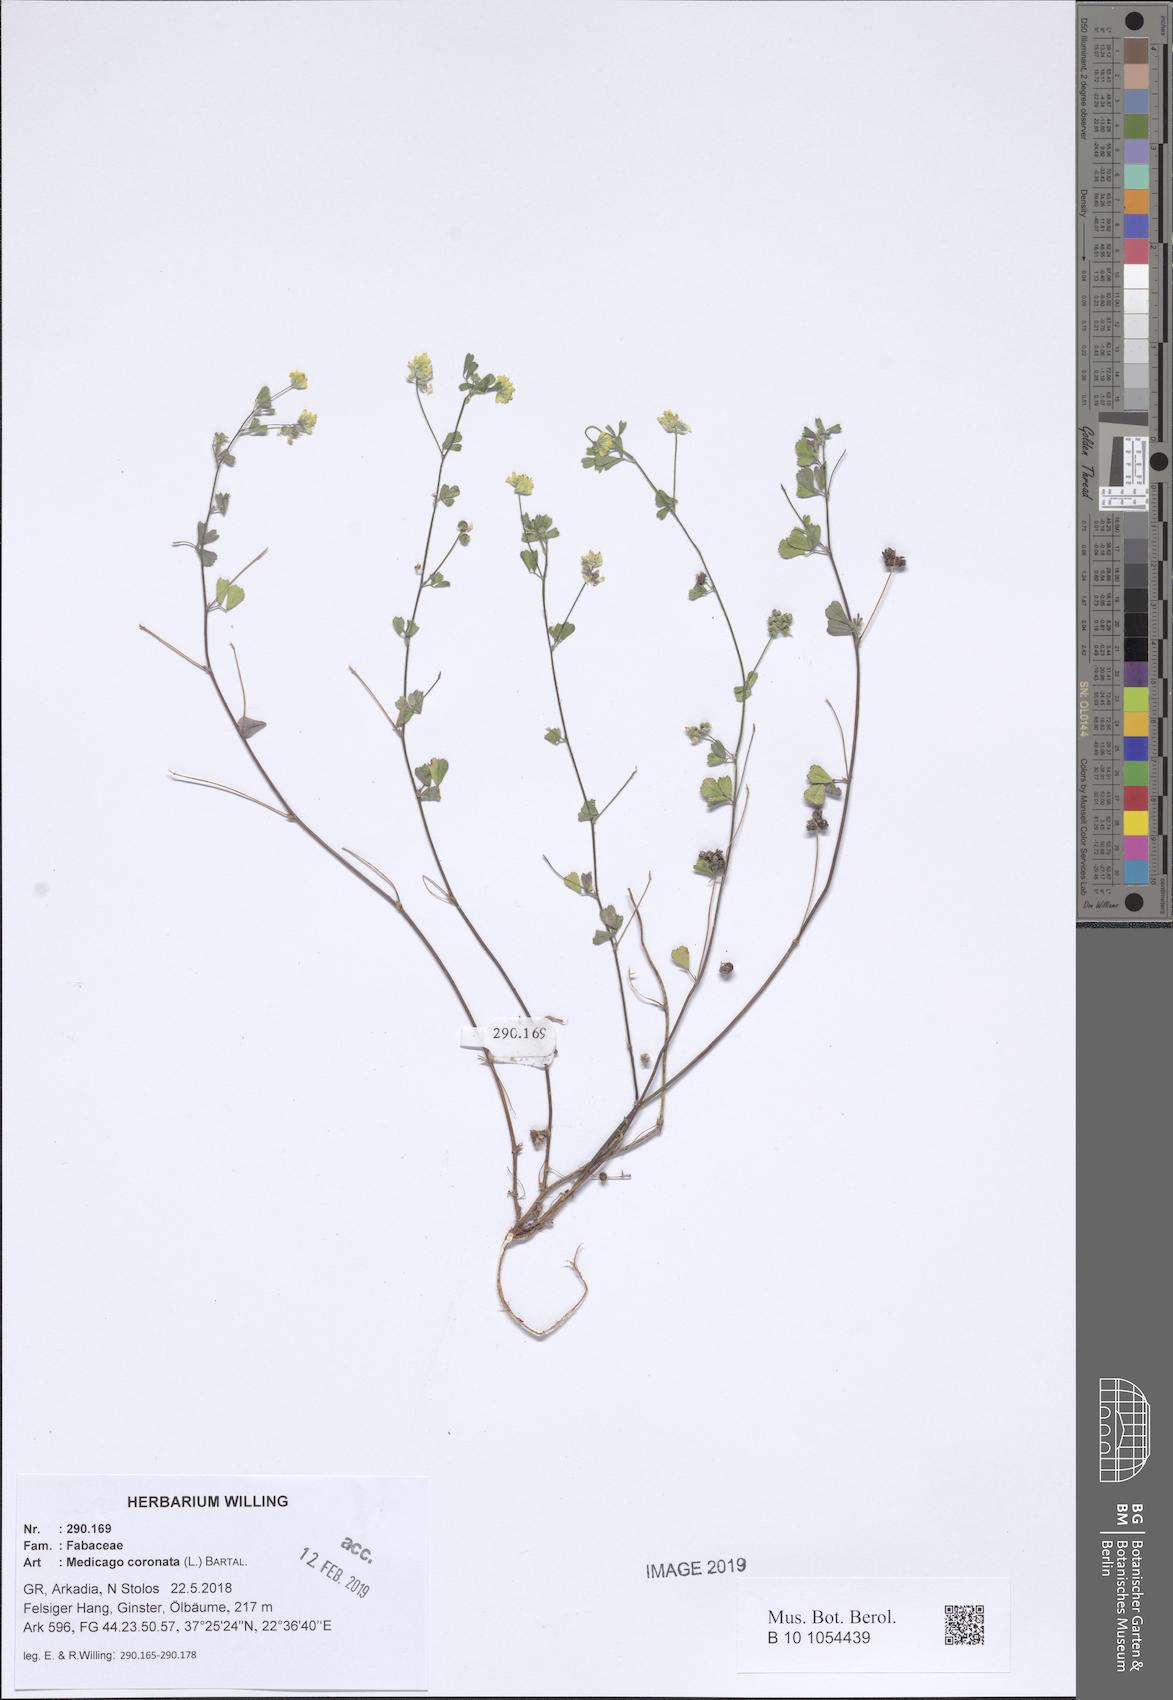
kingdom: Plantae
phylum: Tracheophyta
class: Magnoliopsida
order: Fabales
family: Fabaceae
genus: Medicago
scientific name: Medicago coronata
